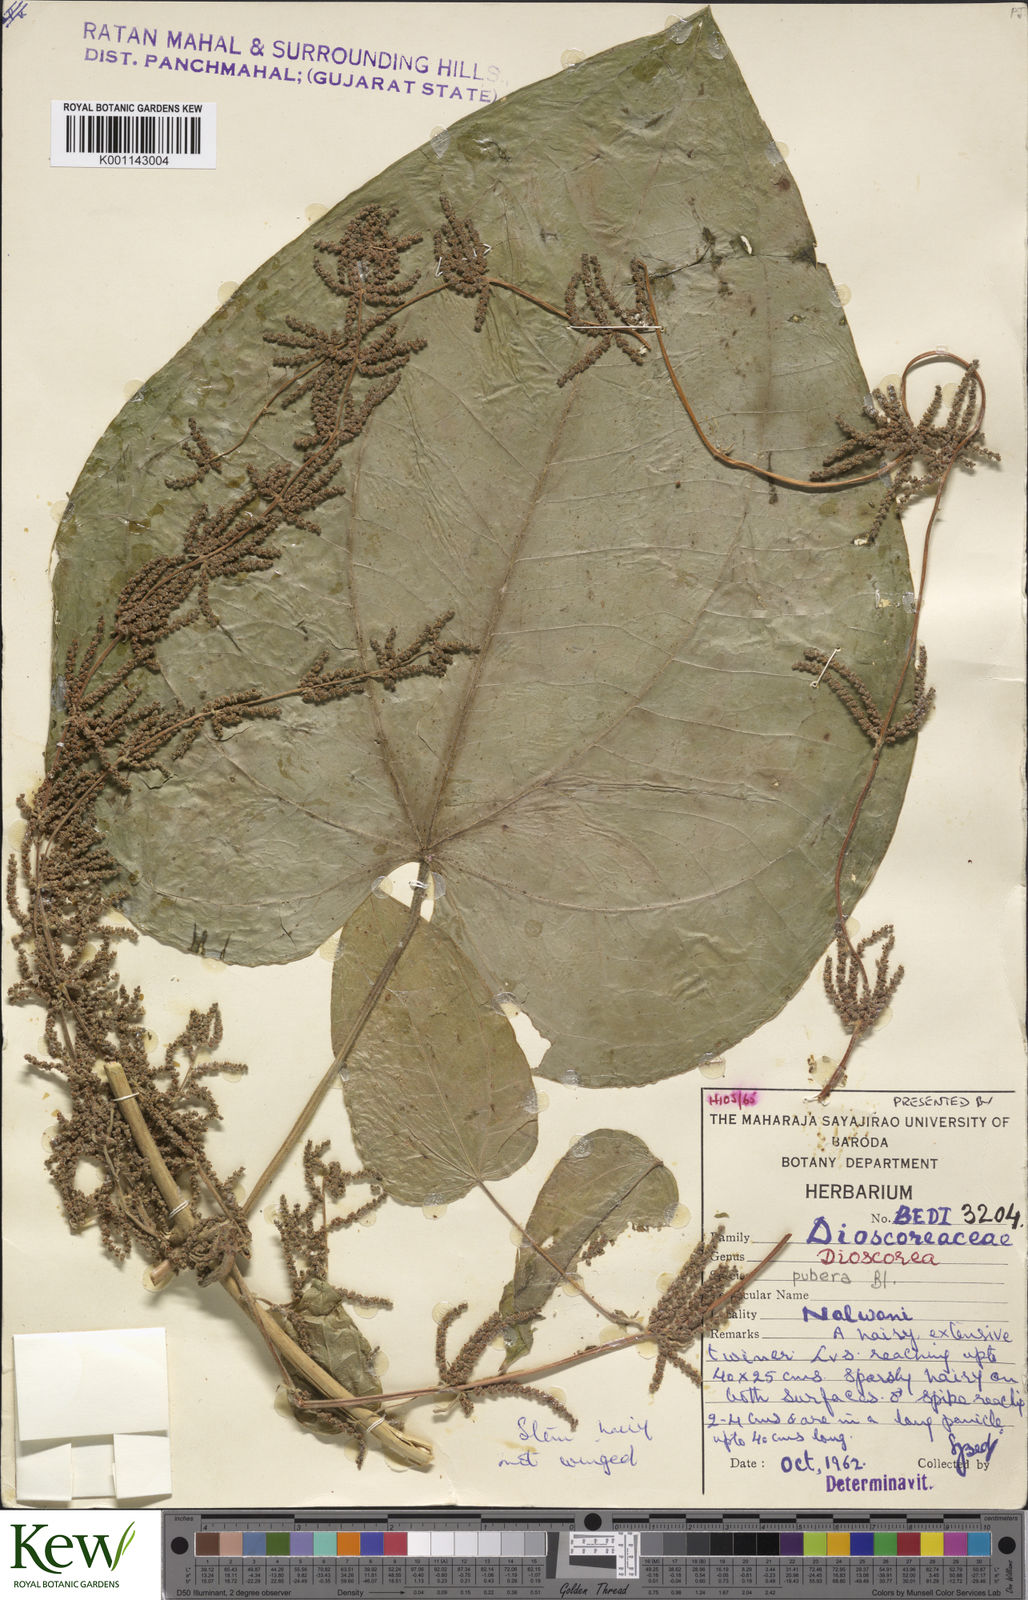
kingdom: Plantae
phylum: Tracheophyta
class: Liliopsida
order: Dioscoreales
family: Dioscoreaceae
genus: Dioscorea
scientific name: Dioscorea pubera
